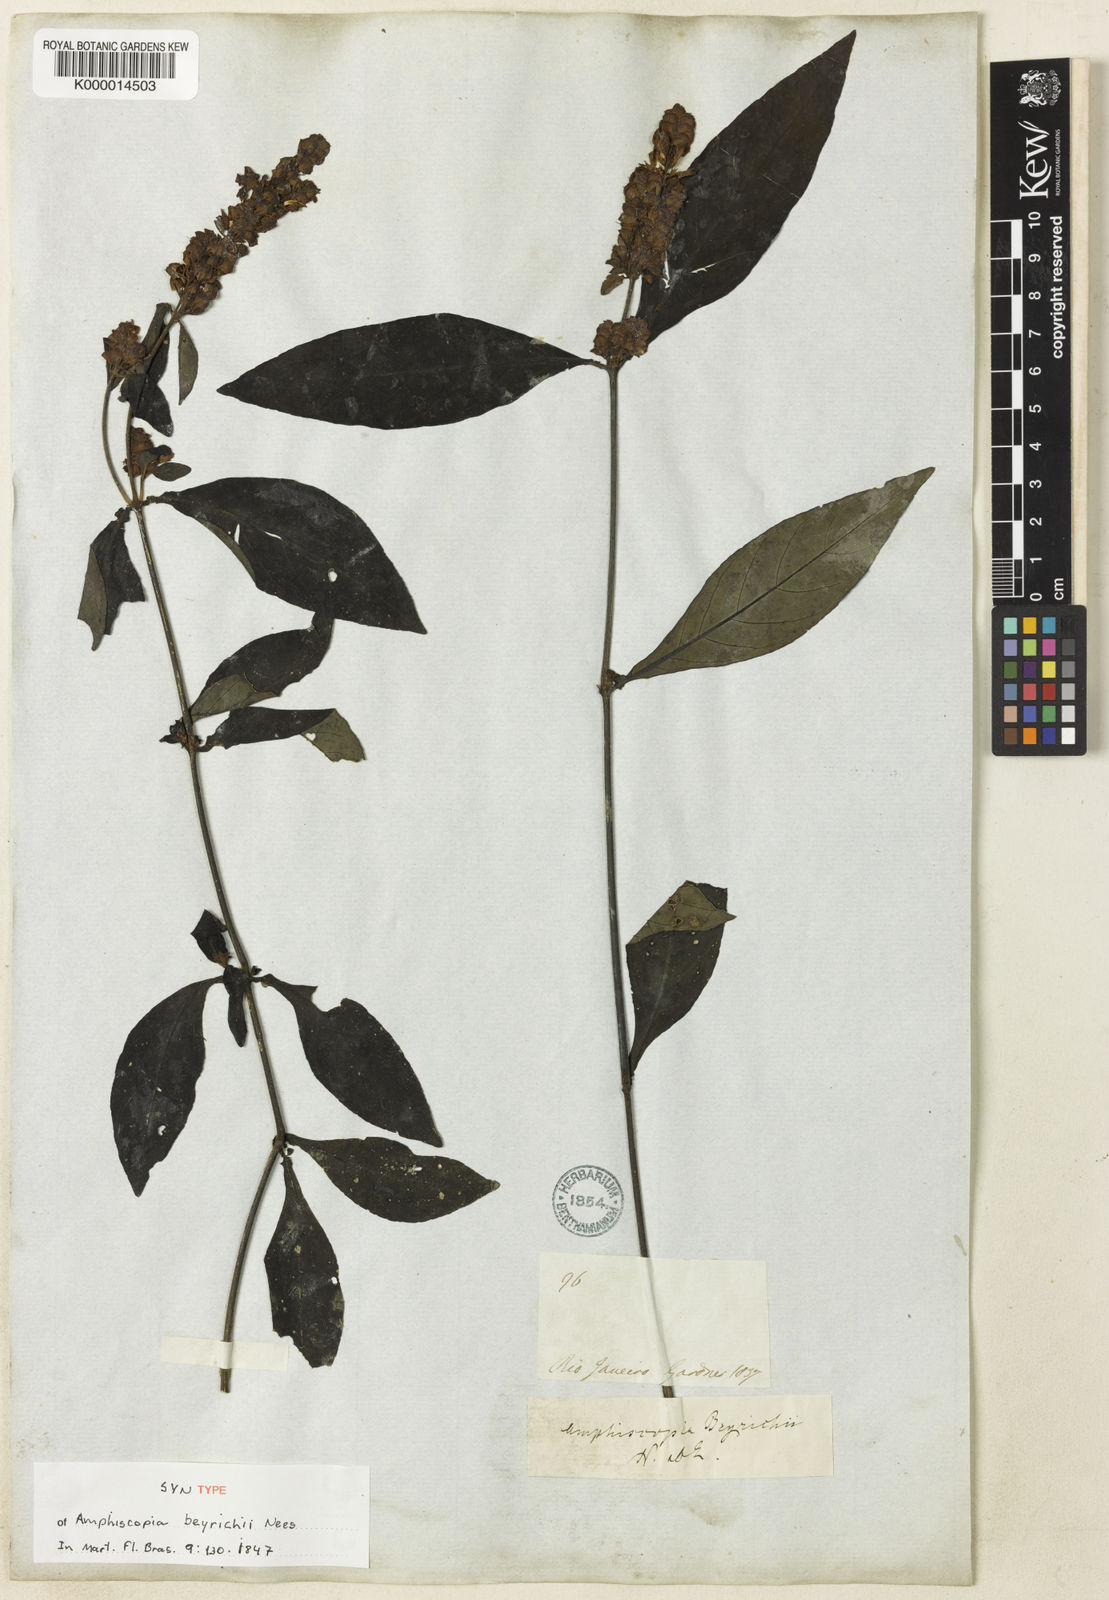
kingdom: Plantae
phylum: Tracheophyta
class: Magnoliopsida
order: Lamiales
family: Acanthaceae
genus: Dianthera
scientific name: Dianthera brasiliensis
